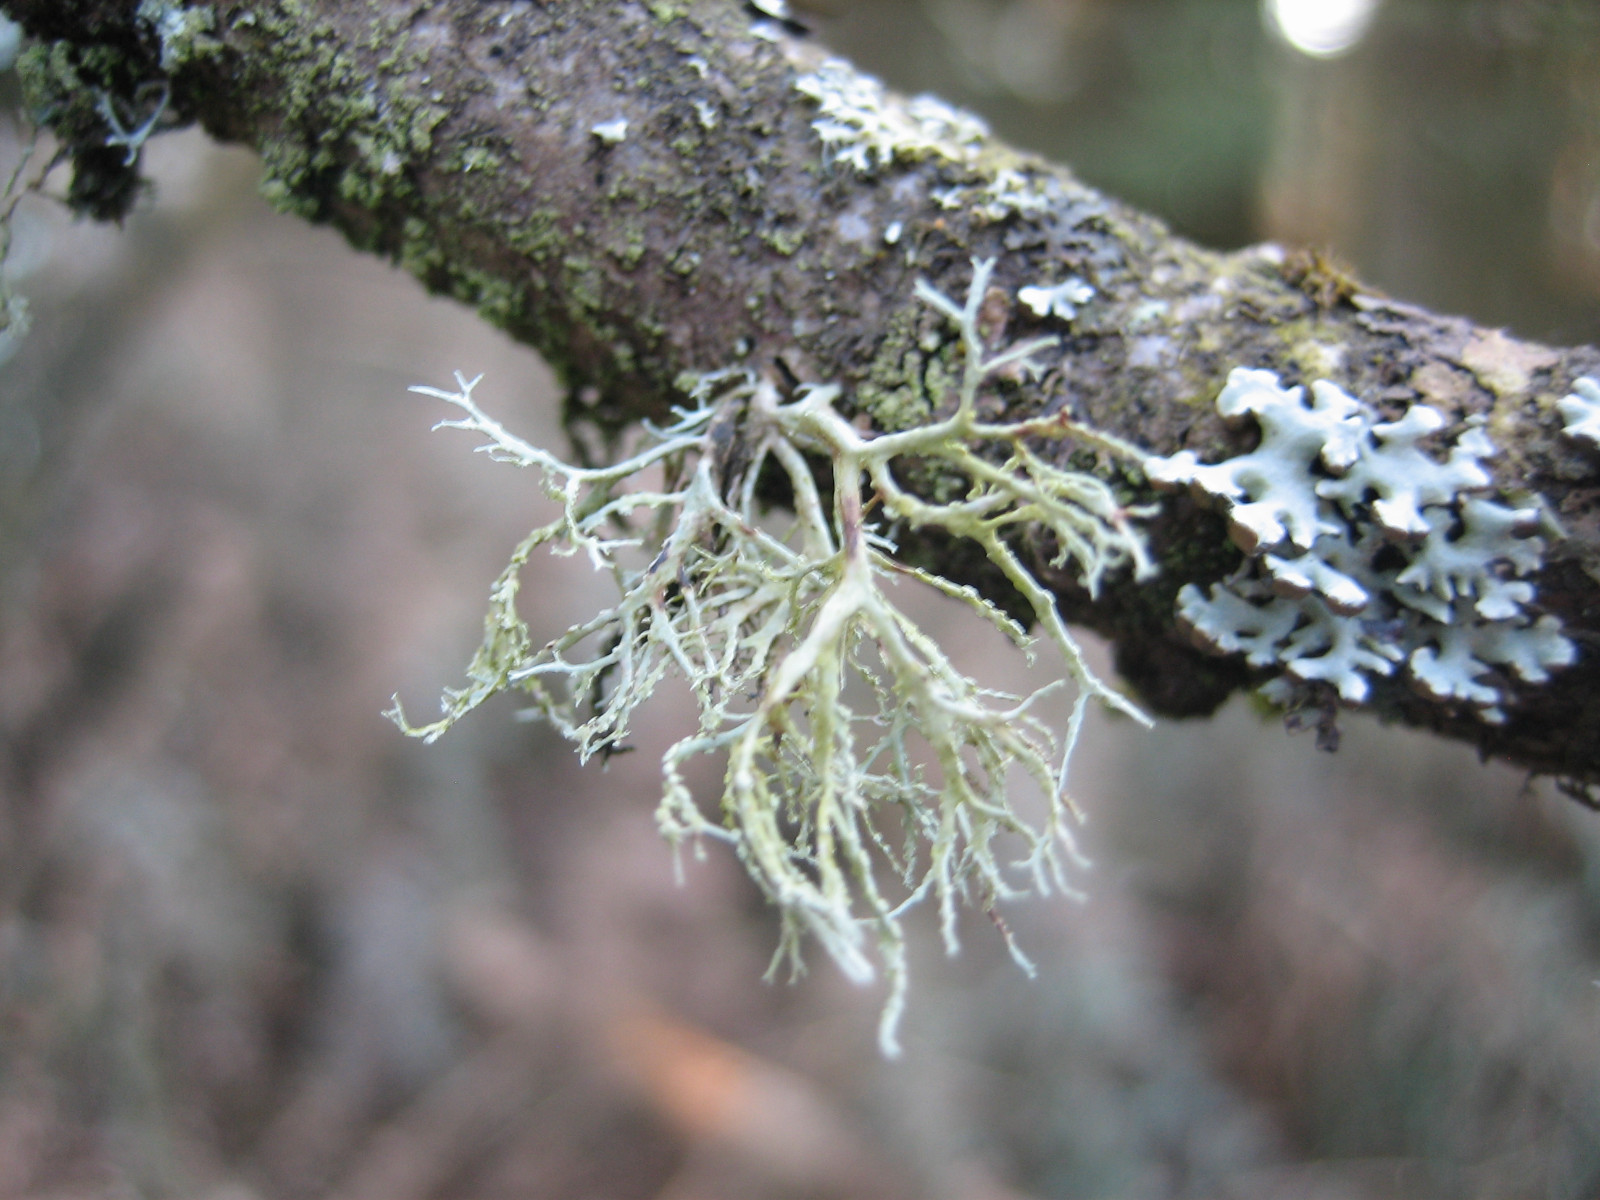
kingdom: Fungi
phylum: Ascomycota
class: Lecanoromycetes
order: Lecanorales
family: Ramalinaceae
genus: Ramalina
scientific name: Ramalina farinacea
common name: melet grenlav
